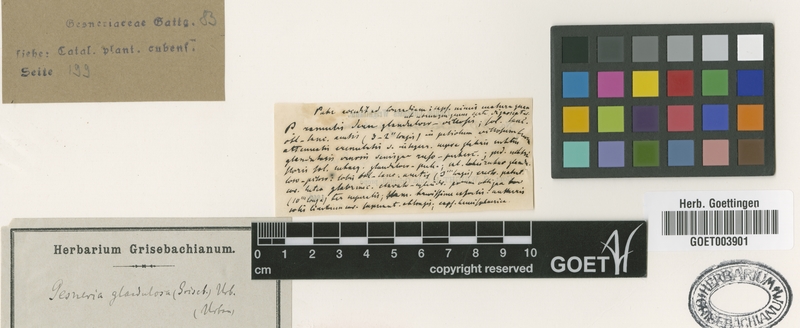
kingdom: Plantae
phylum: Tracheophyta
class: Magnoliopsida
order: Lamiales
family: Gesneriaceae
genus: Gesneria
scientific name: Gesneria glandulosa
